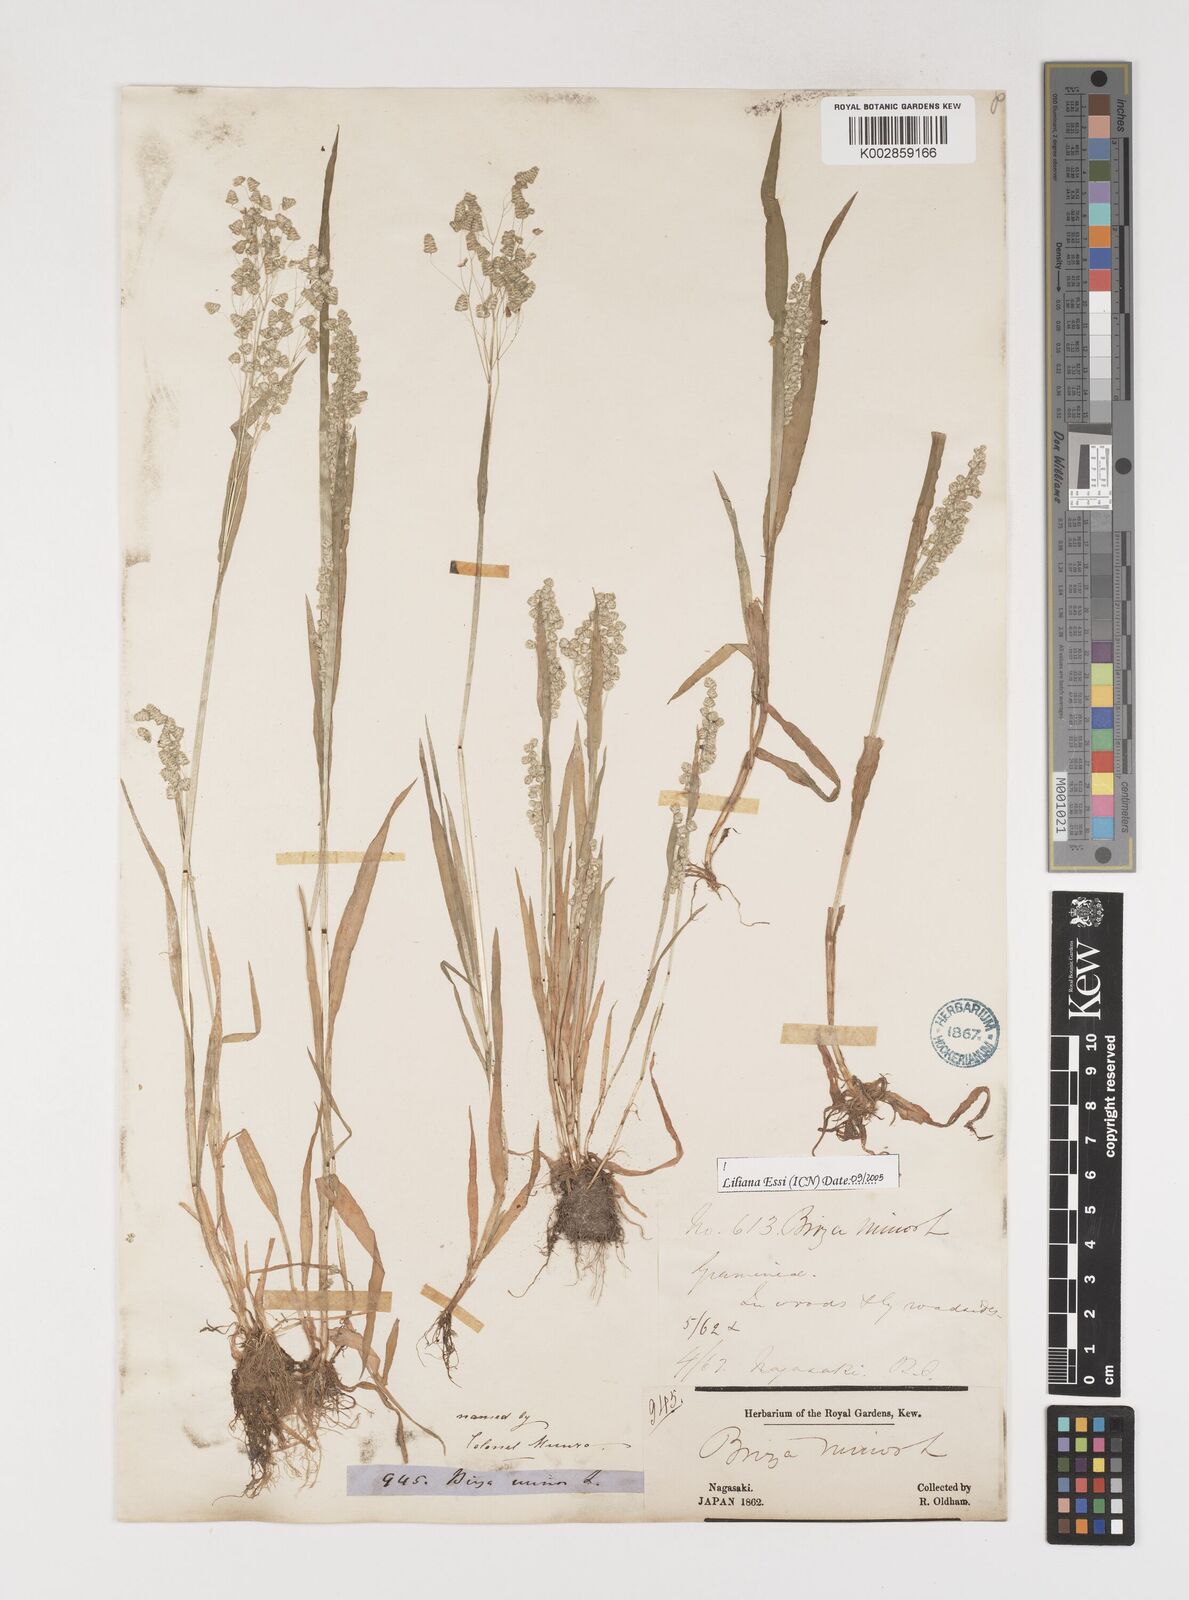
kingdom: Plantae
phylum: Tracheophyta
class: Liliopsida
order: Poales
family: Poaceae
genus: Briza
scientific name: Briza minor
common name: Lesser quaking-grass
